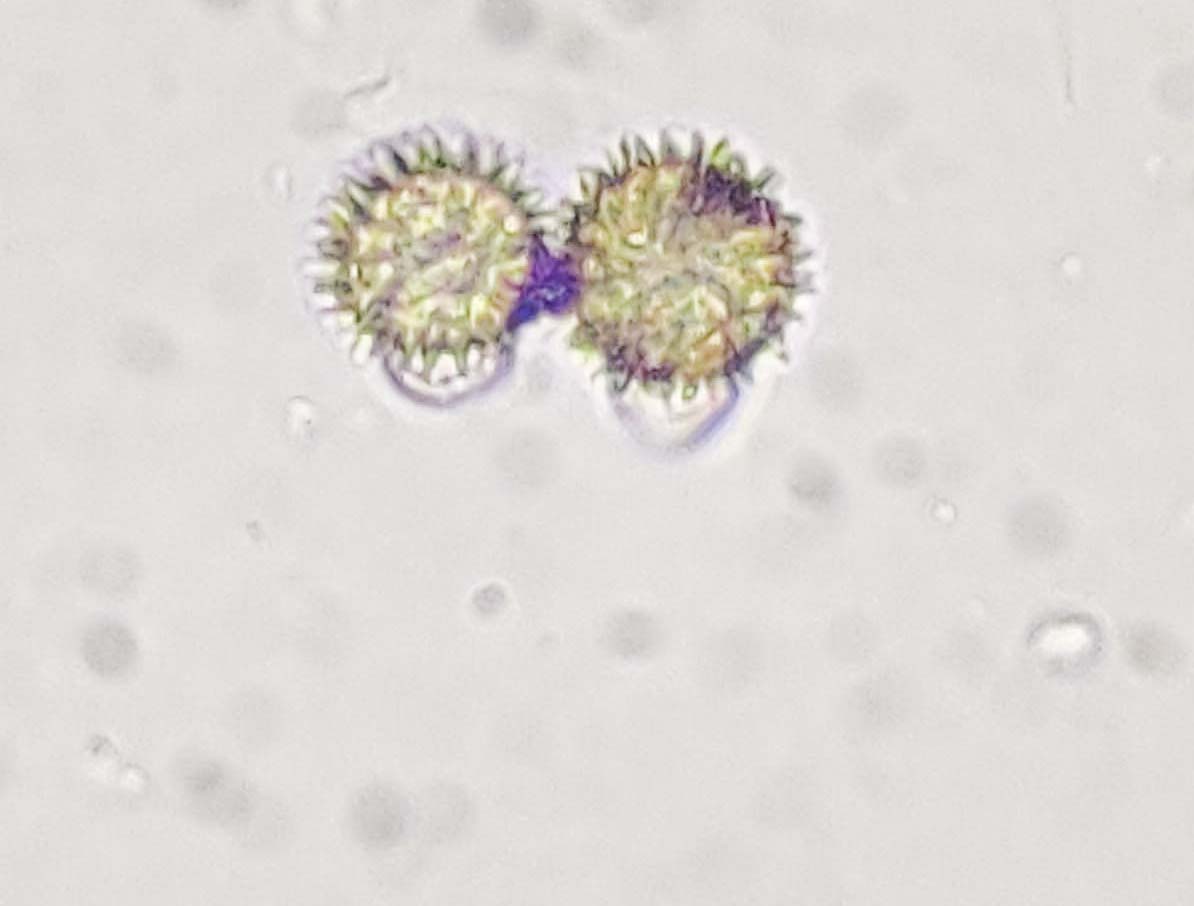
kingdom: Fungi
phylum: Ascomycota
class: Sordariomycetes
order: Hypocreales
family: Hypocreaceae
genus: Hypomyces
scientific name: Hypomyces cervinus
